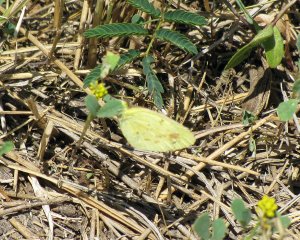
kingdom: Animalia
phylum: Arthropoda
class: Insecta
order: Lepidoptera
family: Pieridae
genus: Pyrisitia
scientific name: Pyrisitia lisa
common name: Little Yellow
